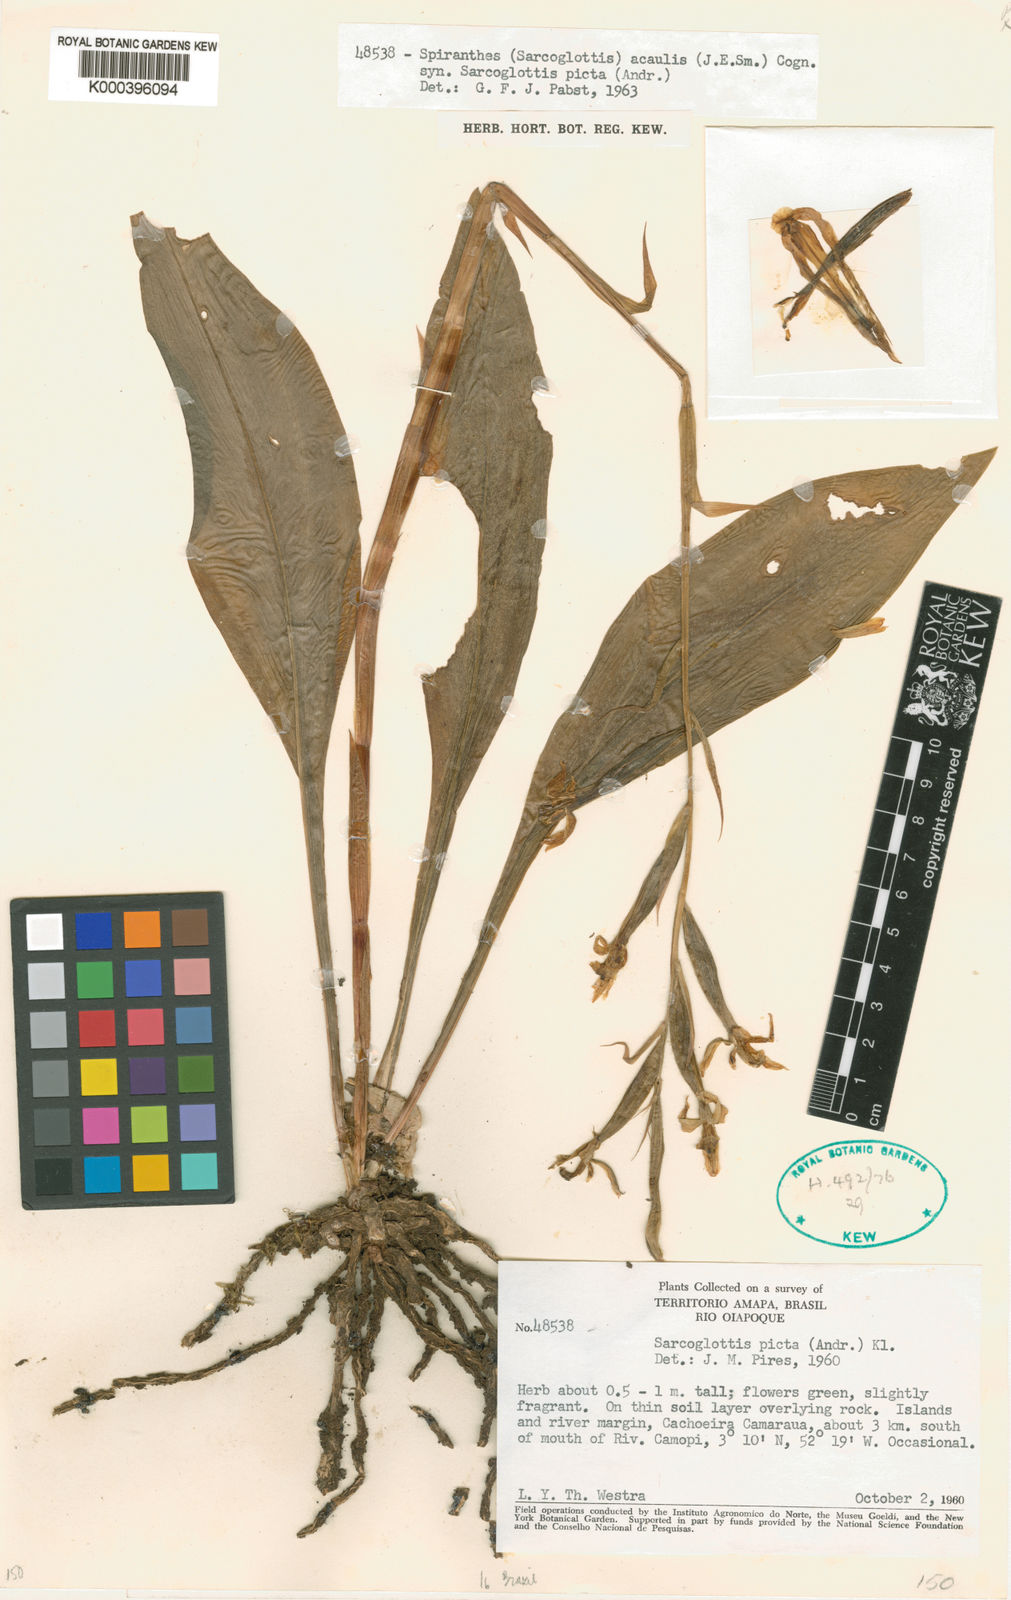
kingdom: Plantae
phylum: Tracheophyta
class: Liliopsida
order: Asparagales
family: Orchidaceae
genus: Sarcoglottis
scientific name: Sarcoglottis acaulis
